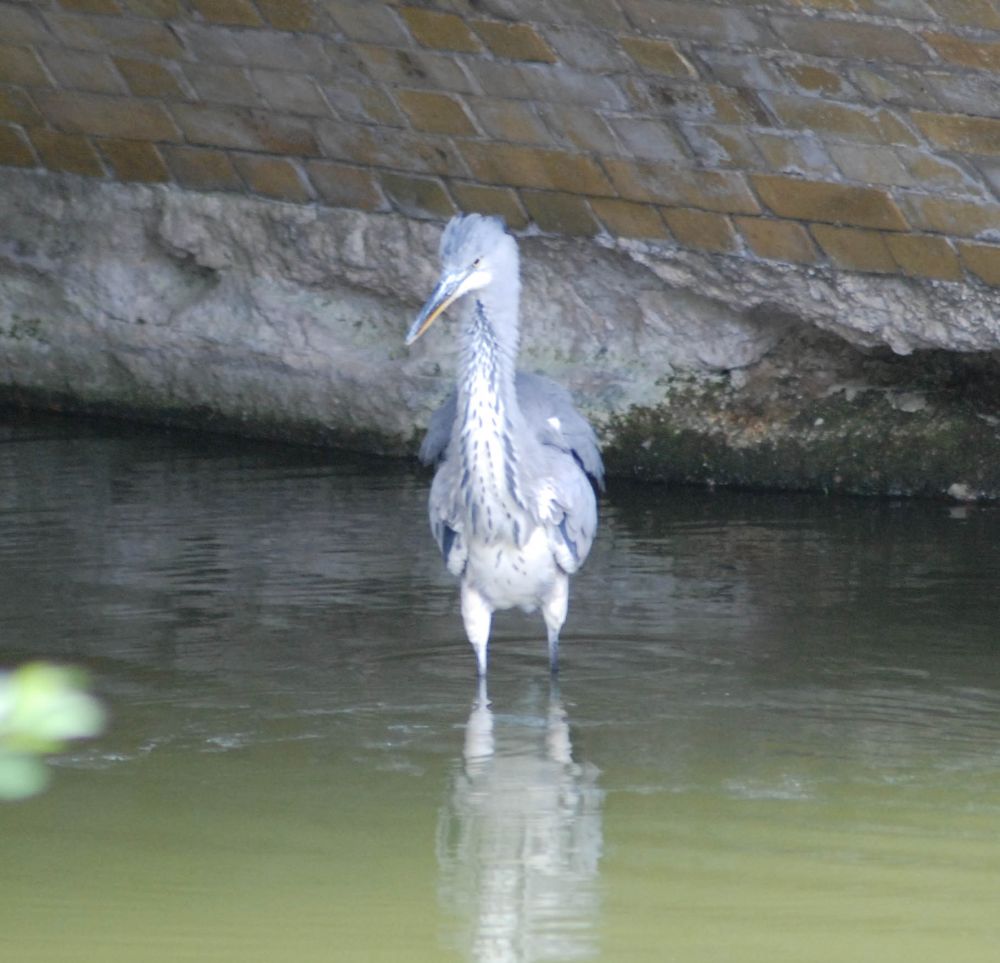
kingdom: Animalia
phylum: Chordata
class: Aves
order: Pelecaniformes
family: Ardeidae
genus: Ardea
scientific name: Ardea cinerea
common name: Grey heron
